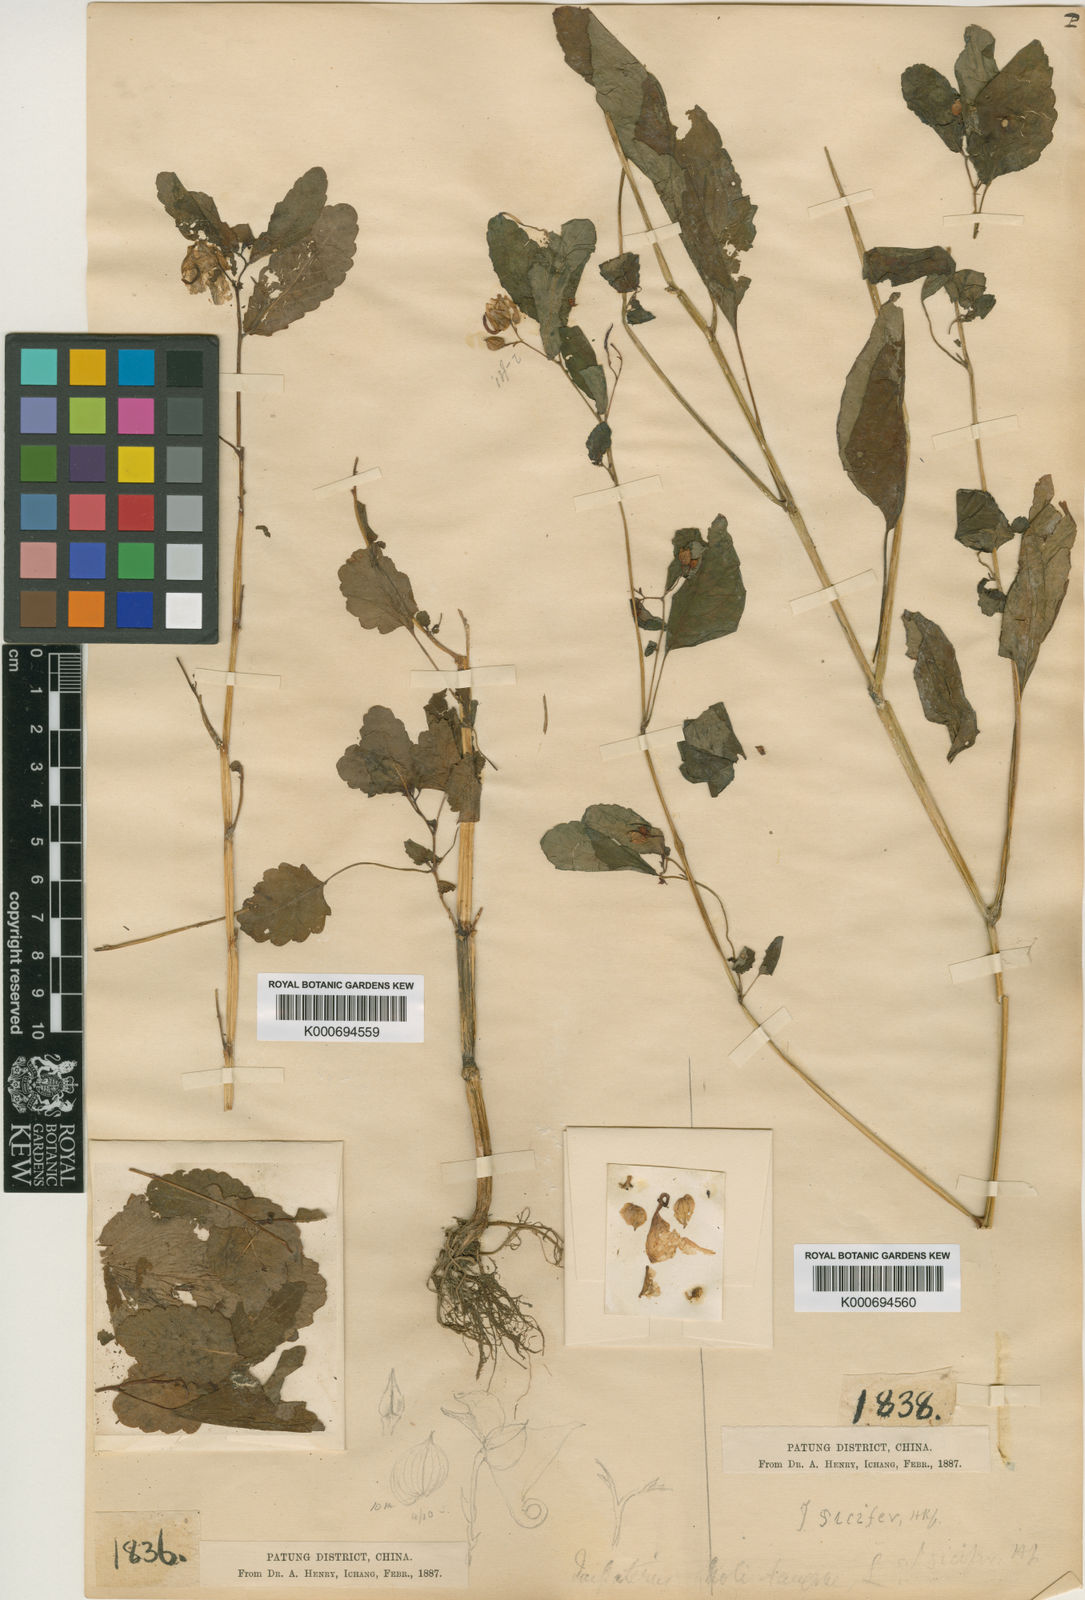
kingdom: Plantae
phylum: Tracheophyta
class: Magnoliopsida
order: Ericales
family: Balsaminaceae
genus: Impatiens
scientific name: Impatiens
